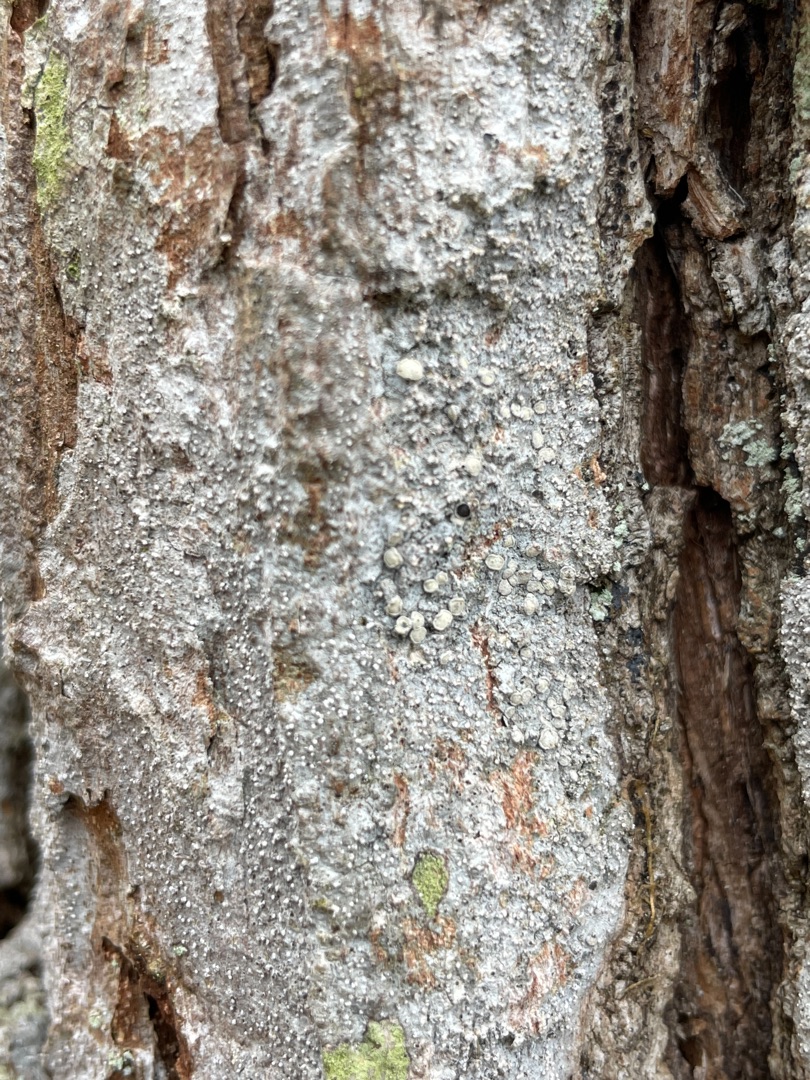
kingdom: Fungi
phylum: Ascomycota
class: Arthoniomycetes
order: Arthoniales
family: Roccellaceae
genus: Lecanactis
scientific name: Lecanactis abietina
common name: Grå dugskivelav
